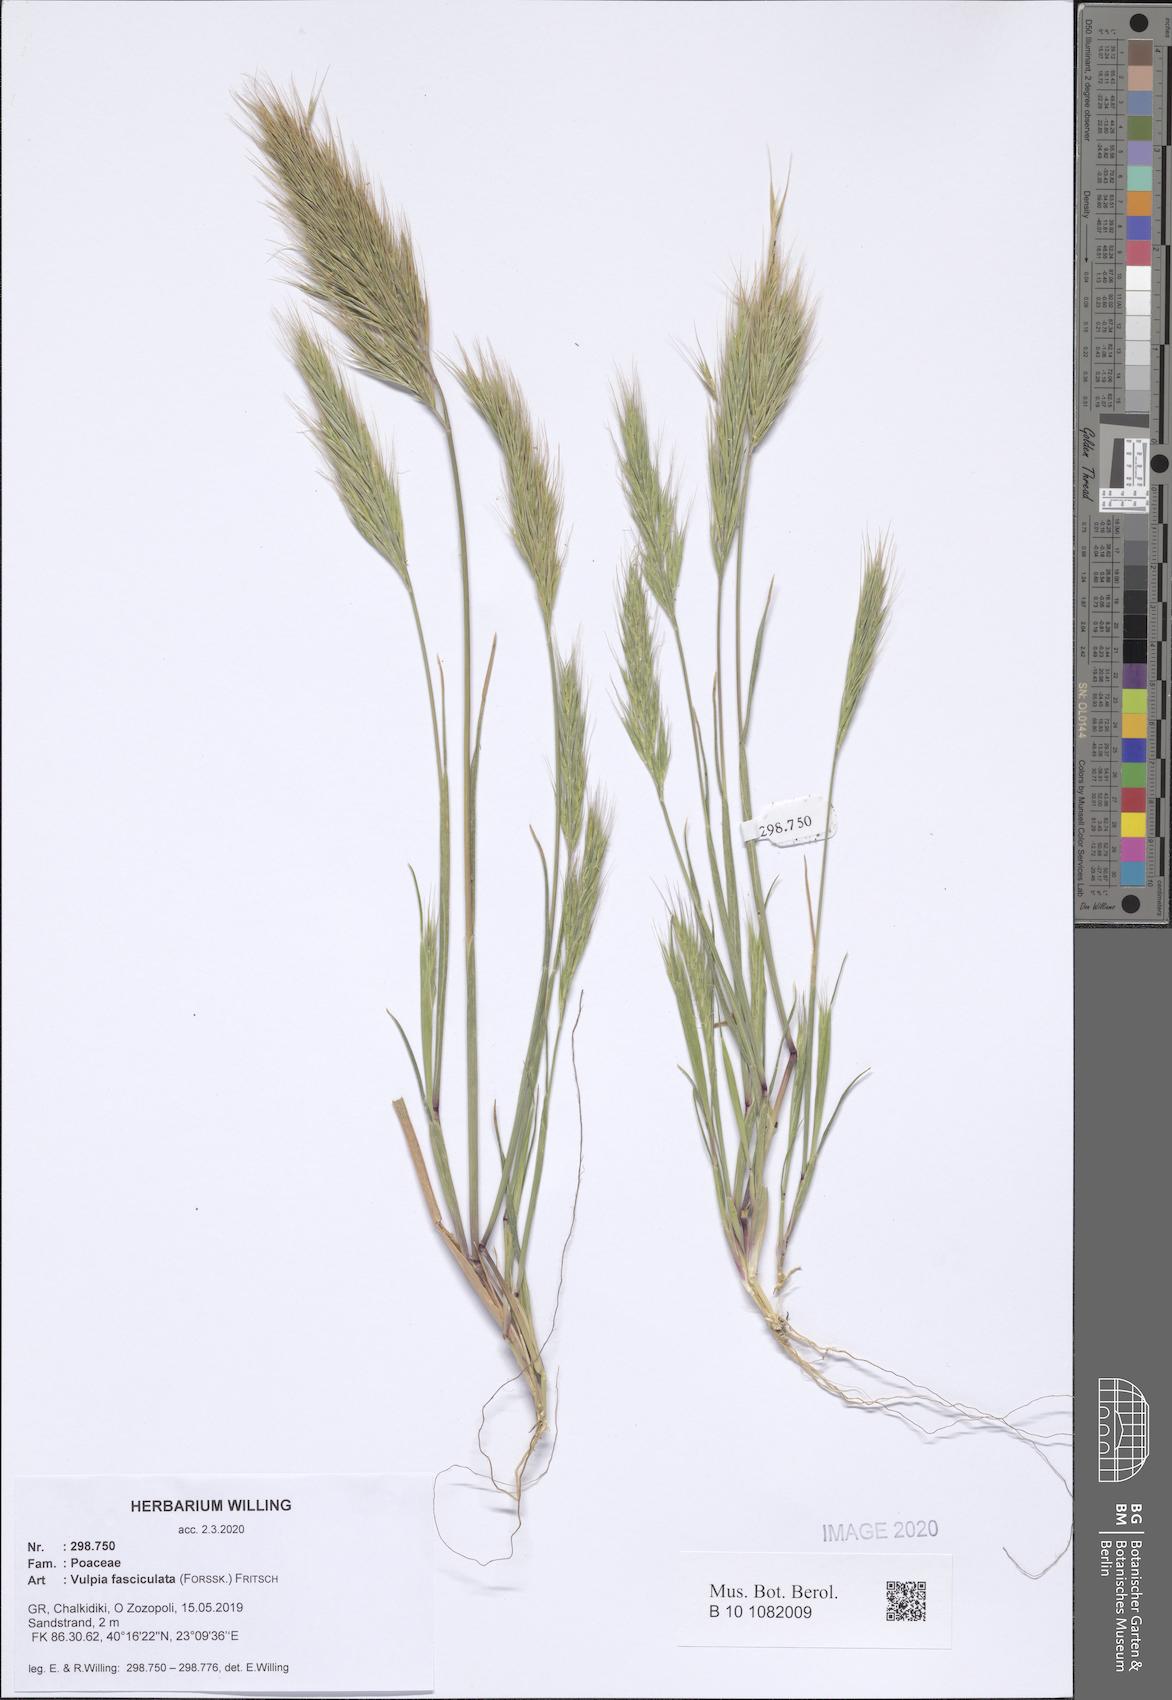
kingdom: Plantae
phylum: Tracheophyta
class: Liliopsida
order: Poales
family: Poaceae
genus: Festuca
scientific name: Festuca fasciculata
